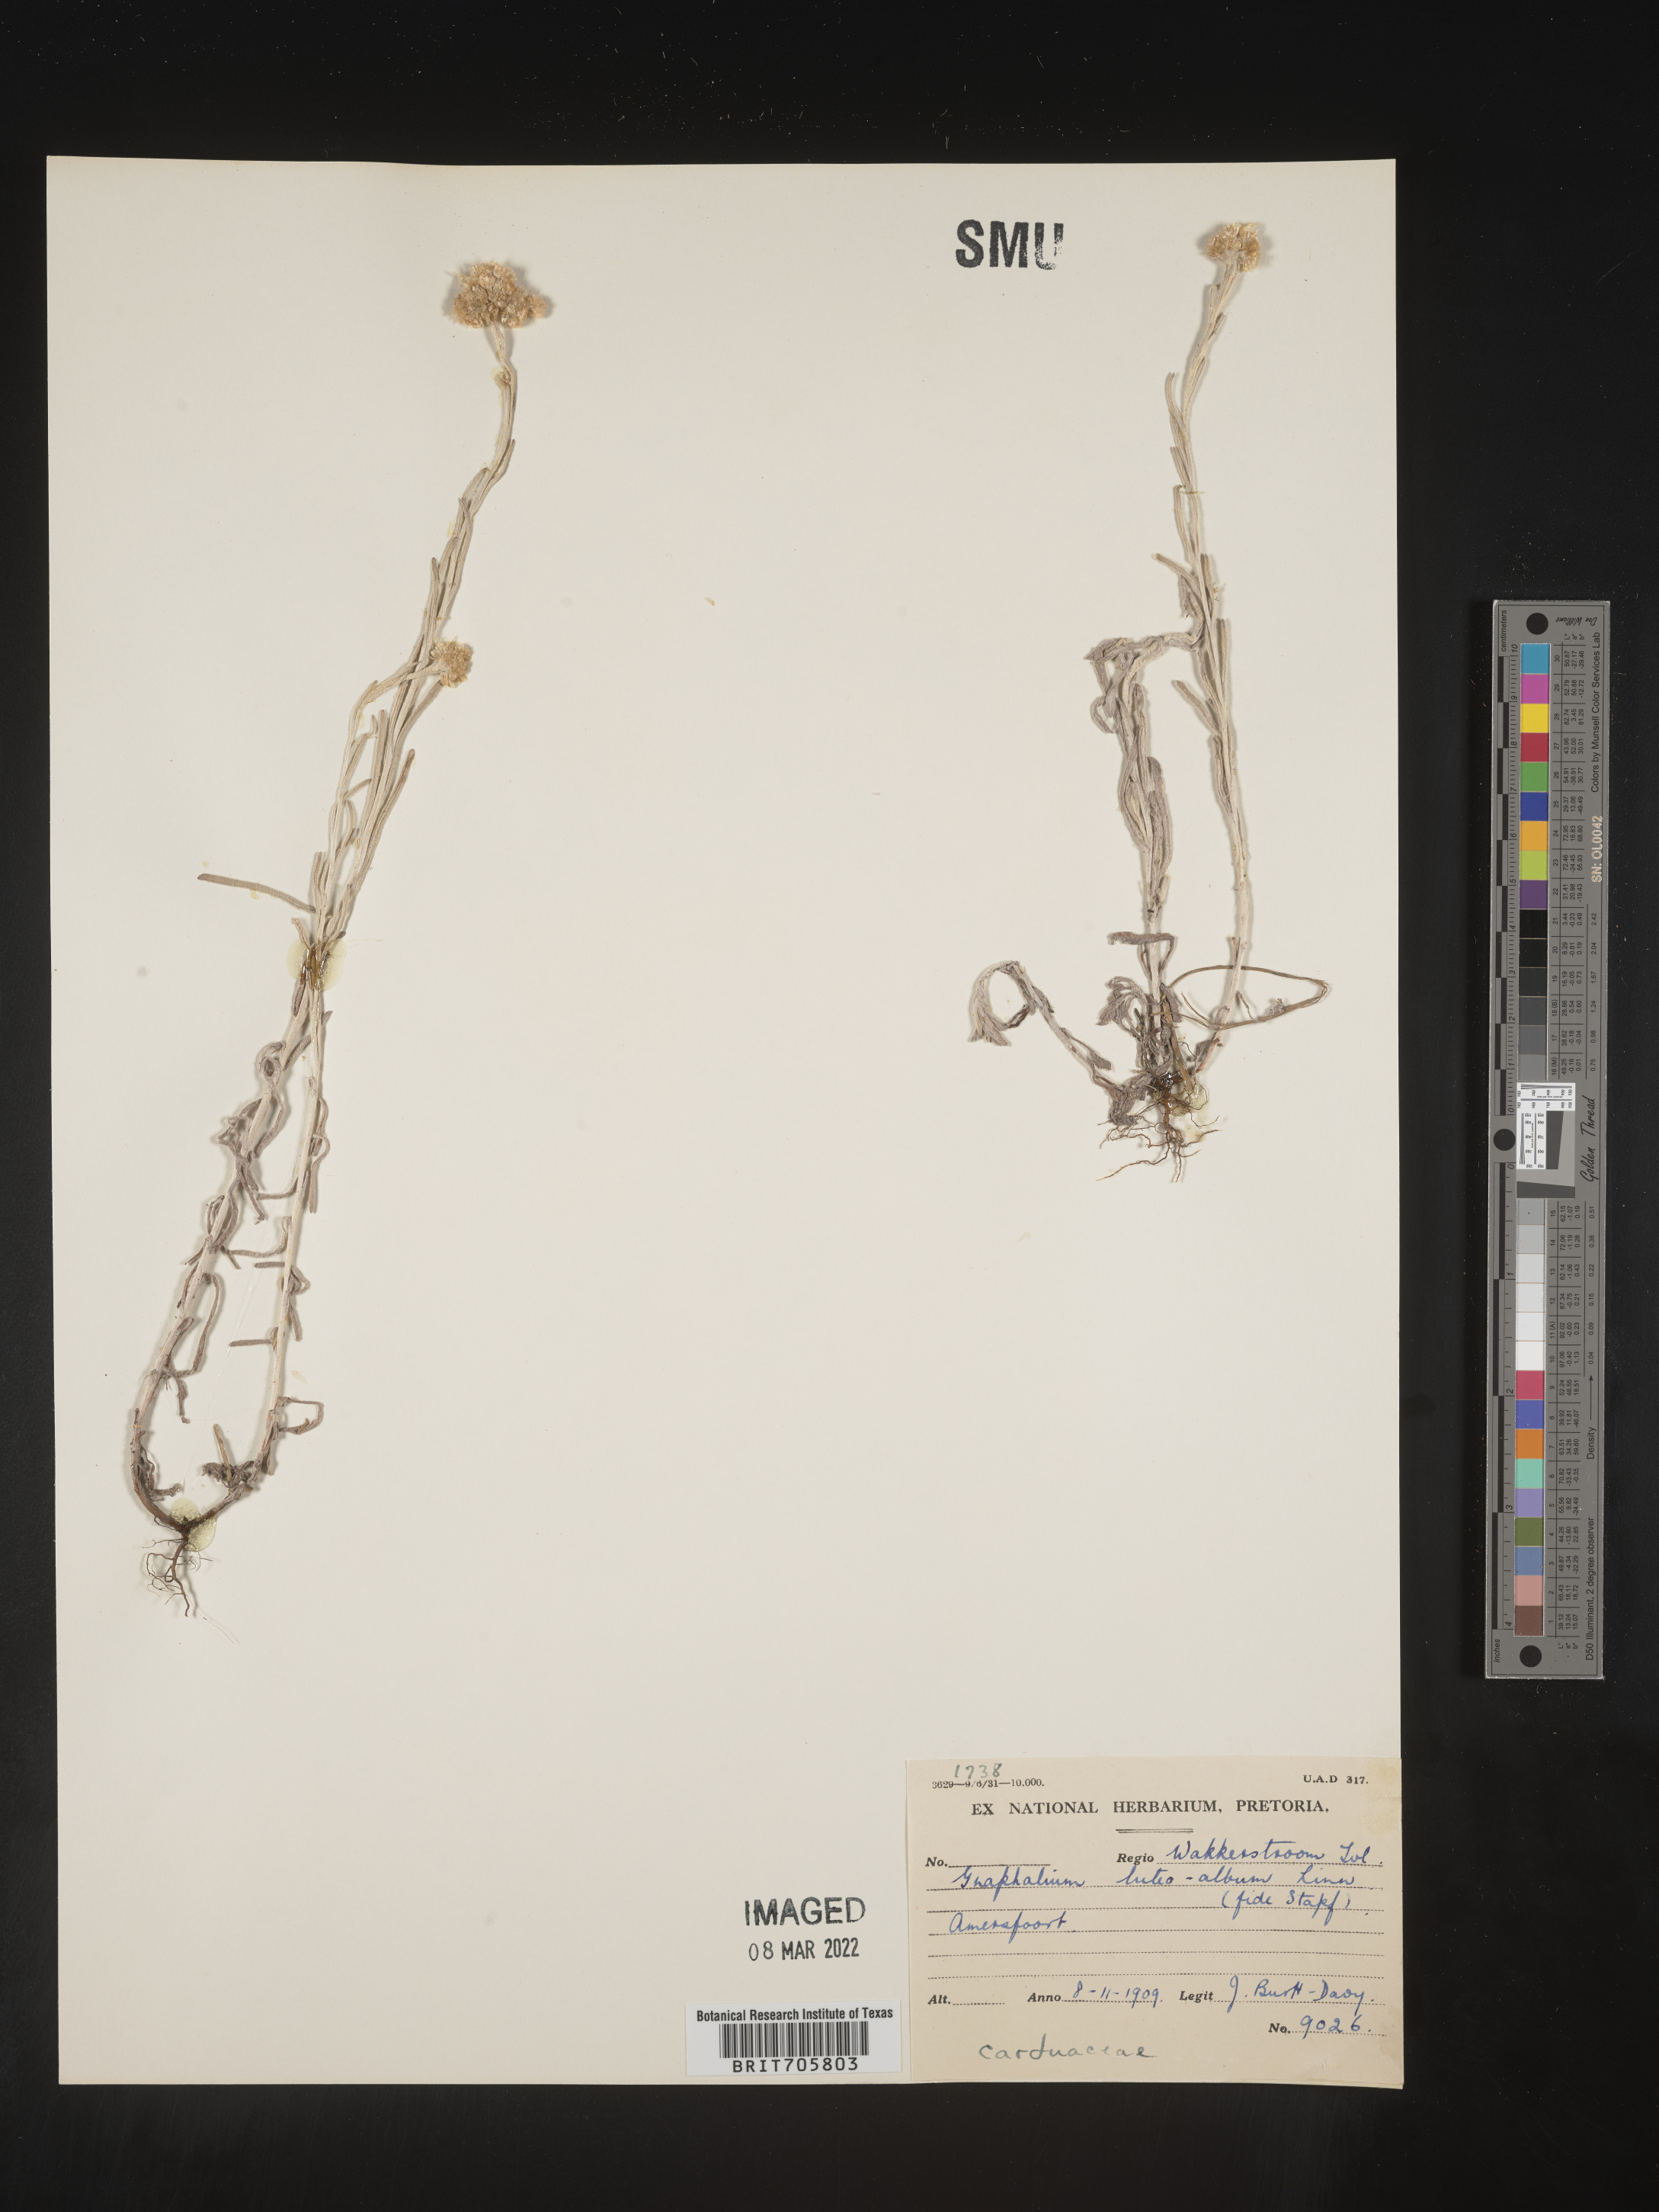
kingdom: Plantae
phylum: Tracheophyta
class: Magnoliopsida
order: Asterales
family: Asteraceae
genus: Pseudognaphalium
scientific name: Pseudognaphalium
